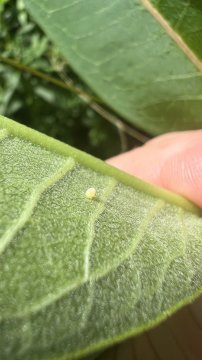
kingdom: Animalia
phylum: Arthropoda
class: Insecta
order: Lepidoptera
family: Nymphalidae
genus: Danaus
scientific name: Danaus plexippus
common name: Monarch
